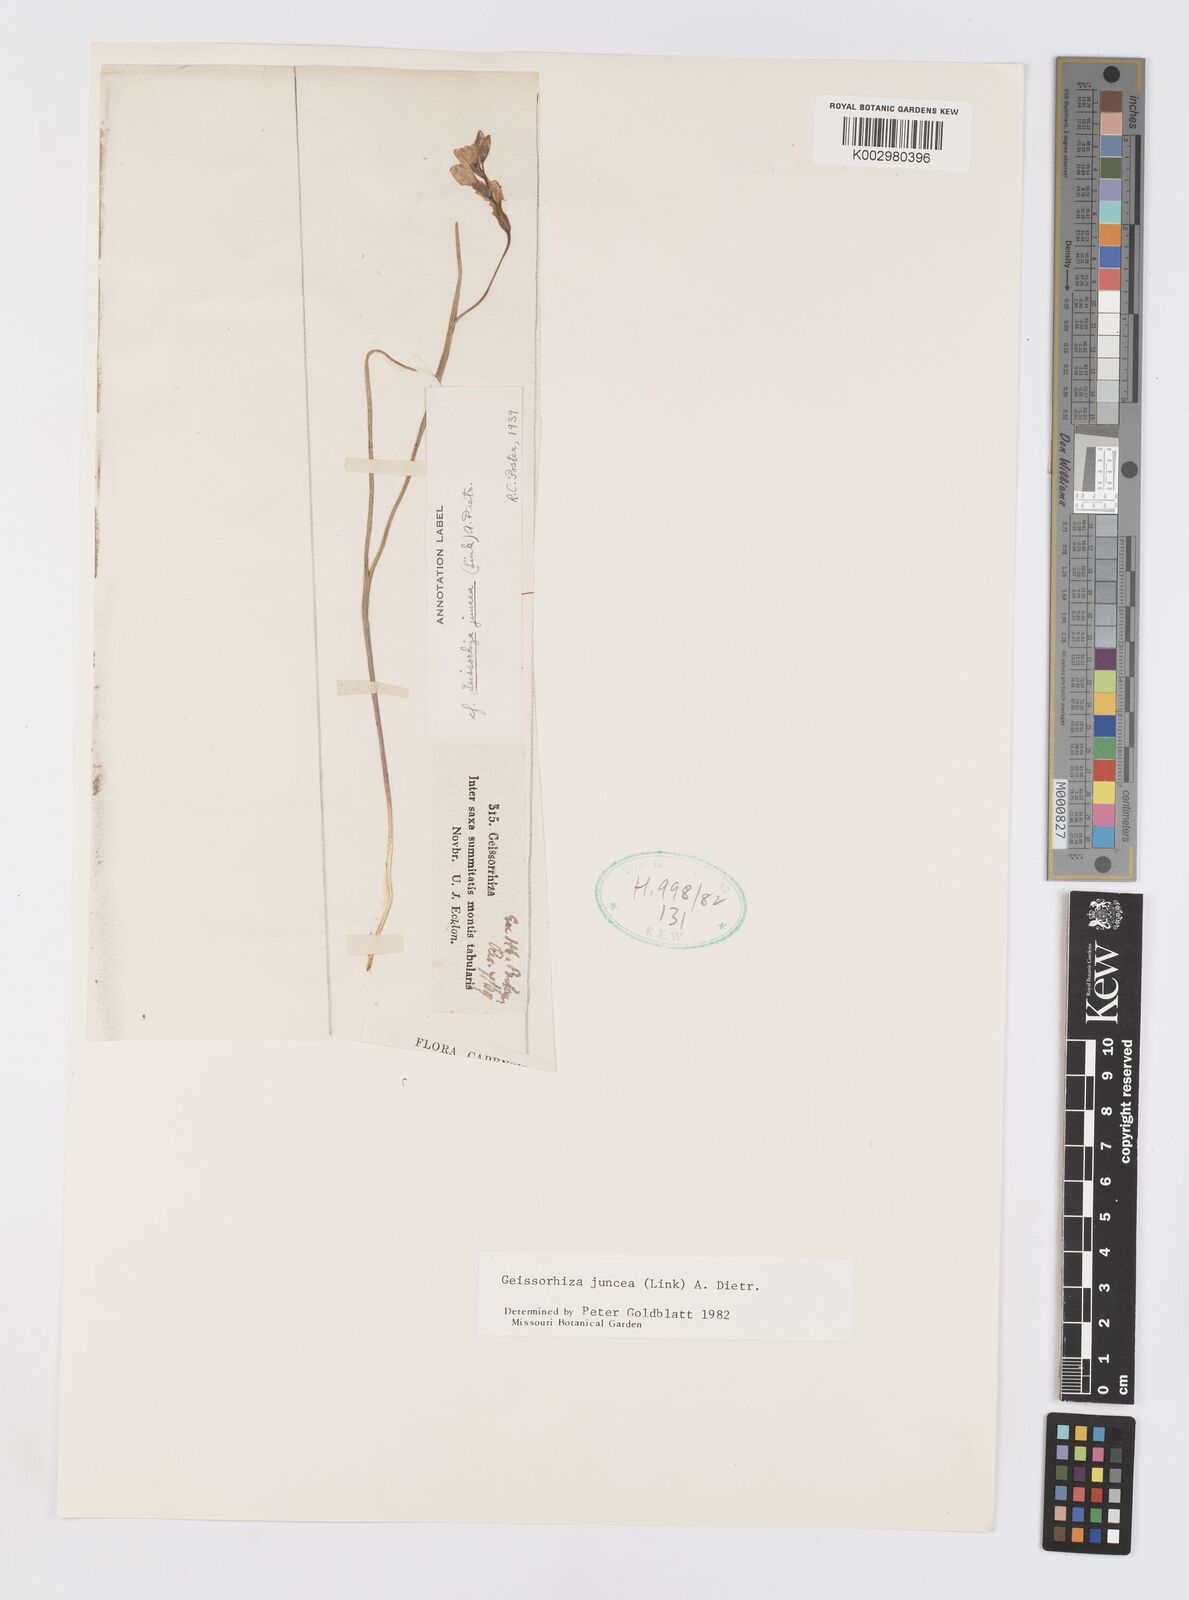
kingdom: Plantae
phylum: Tracheophyta
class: Liliopsida
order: Asparagales
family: Iridaceae
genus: Geissorhiza
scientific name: Geissorhiza juncea
